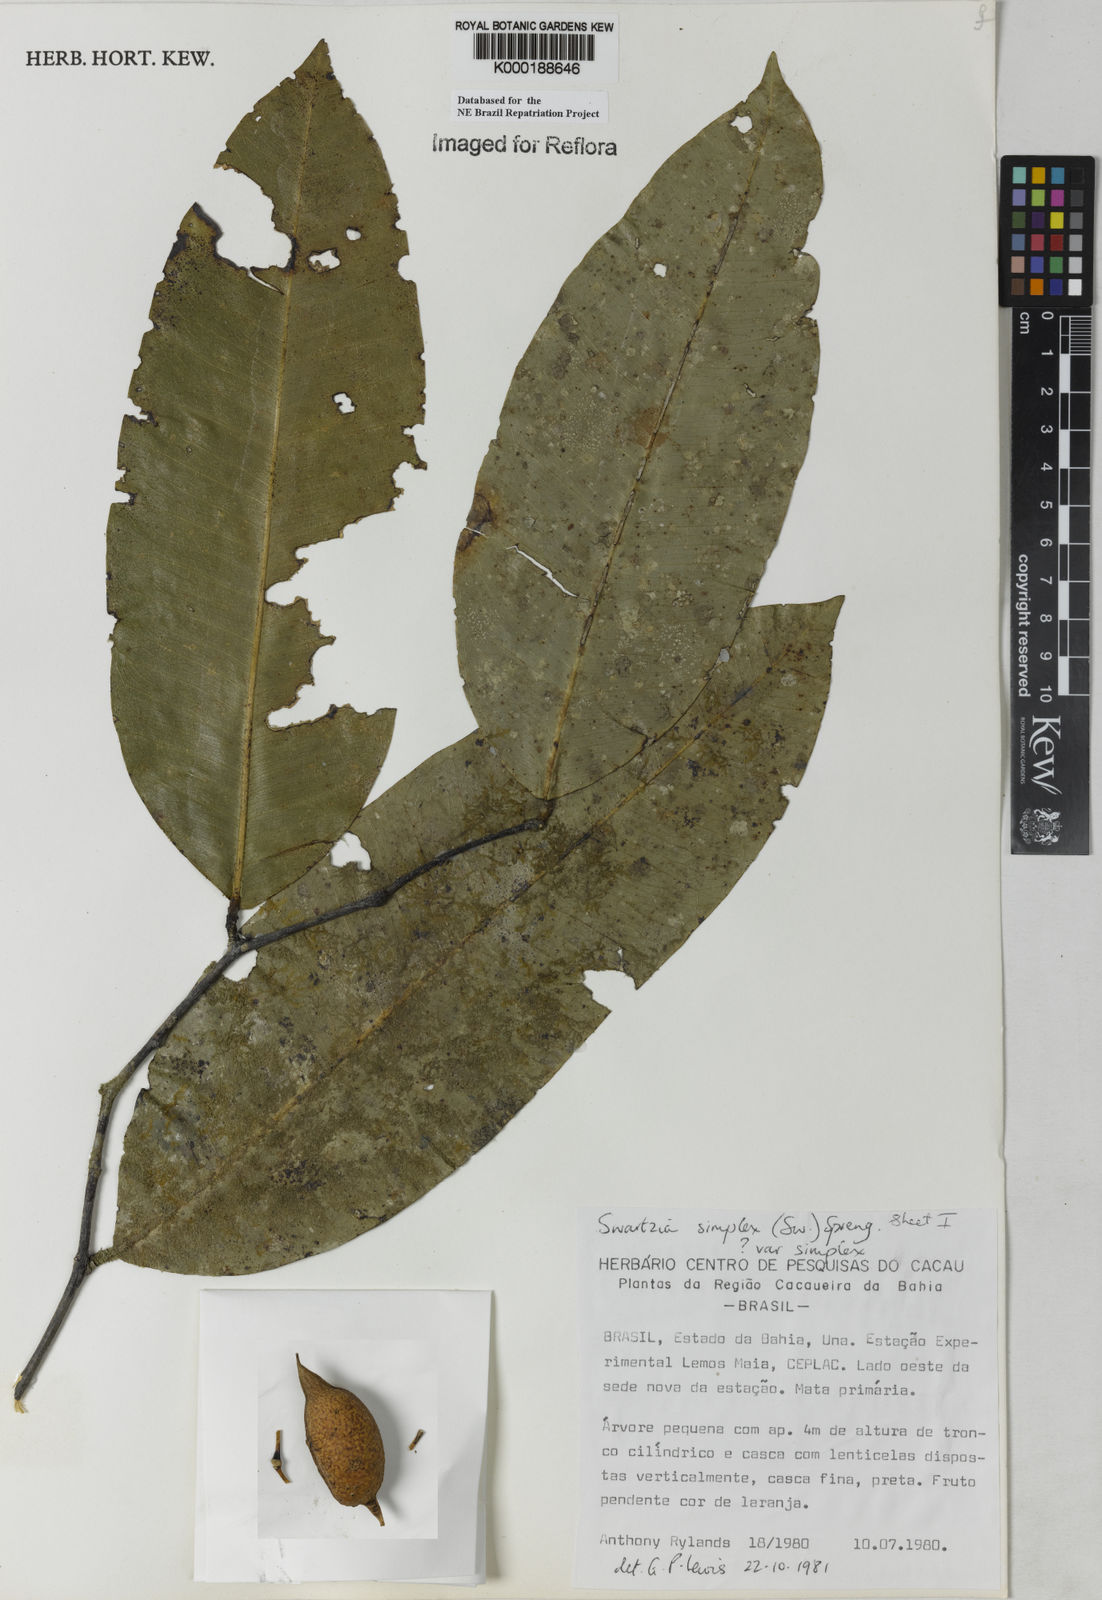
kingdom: Plantae
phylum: Tracheophyta
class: Magnoliopsida
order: Fabales
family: Fabaceae
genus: Swartzia
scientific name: Swartzia simplex
